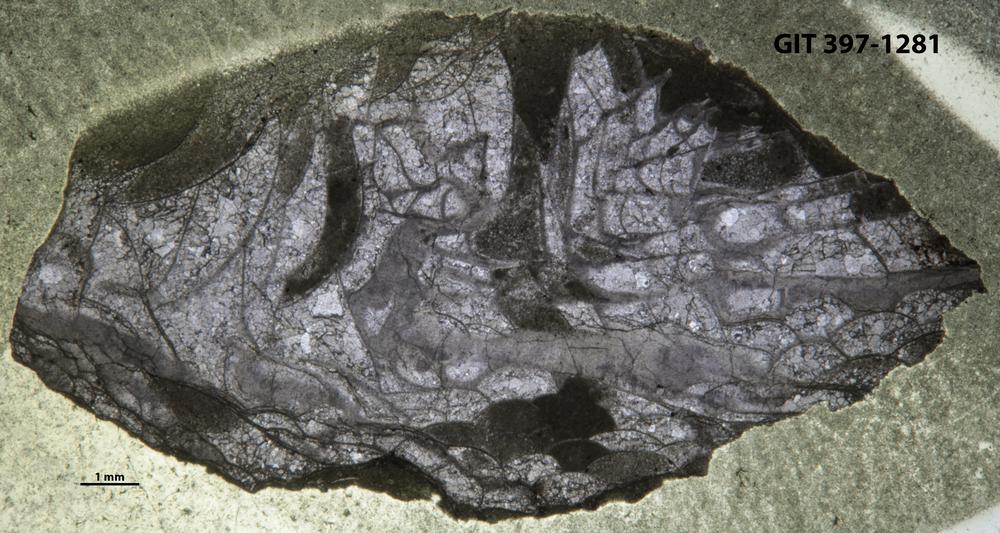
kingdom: Animalia
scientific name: Animalia
